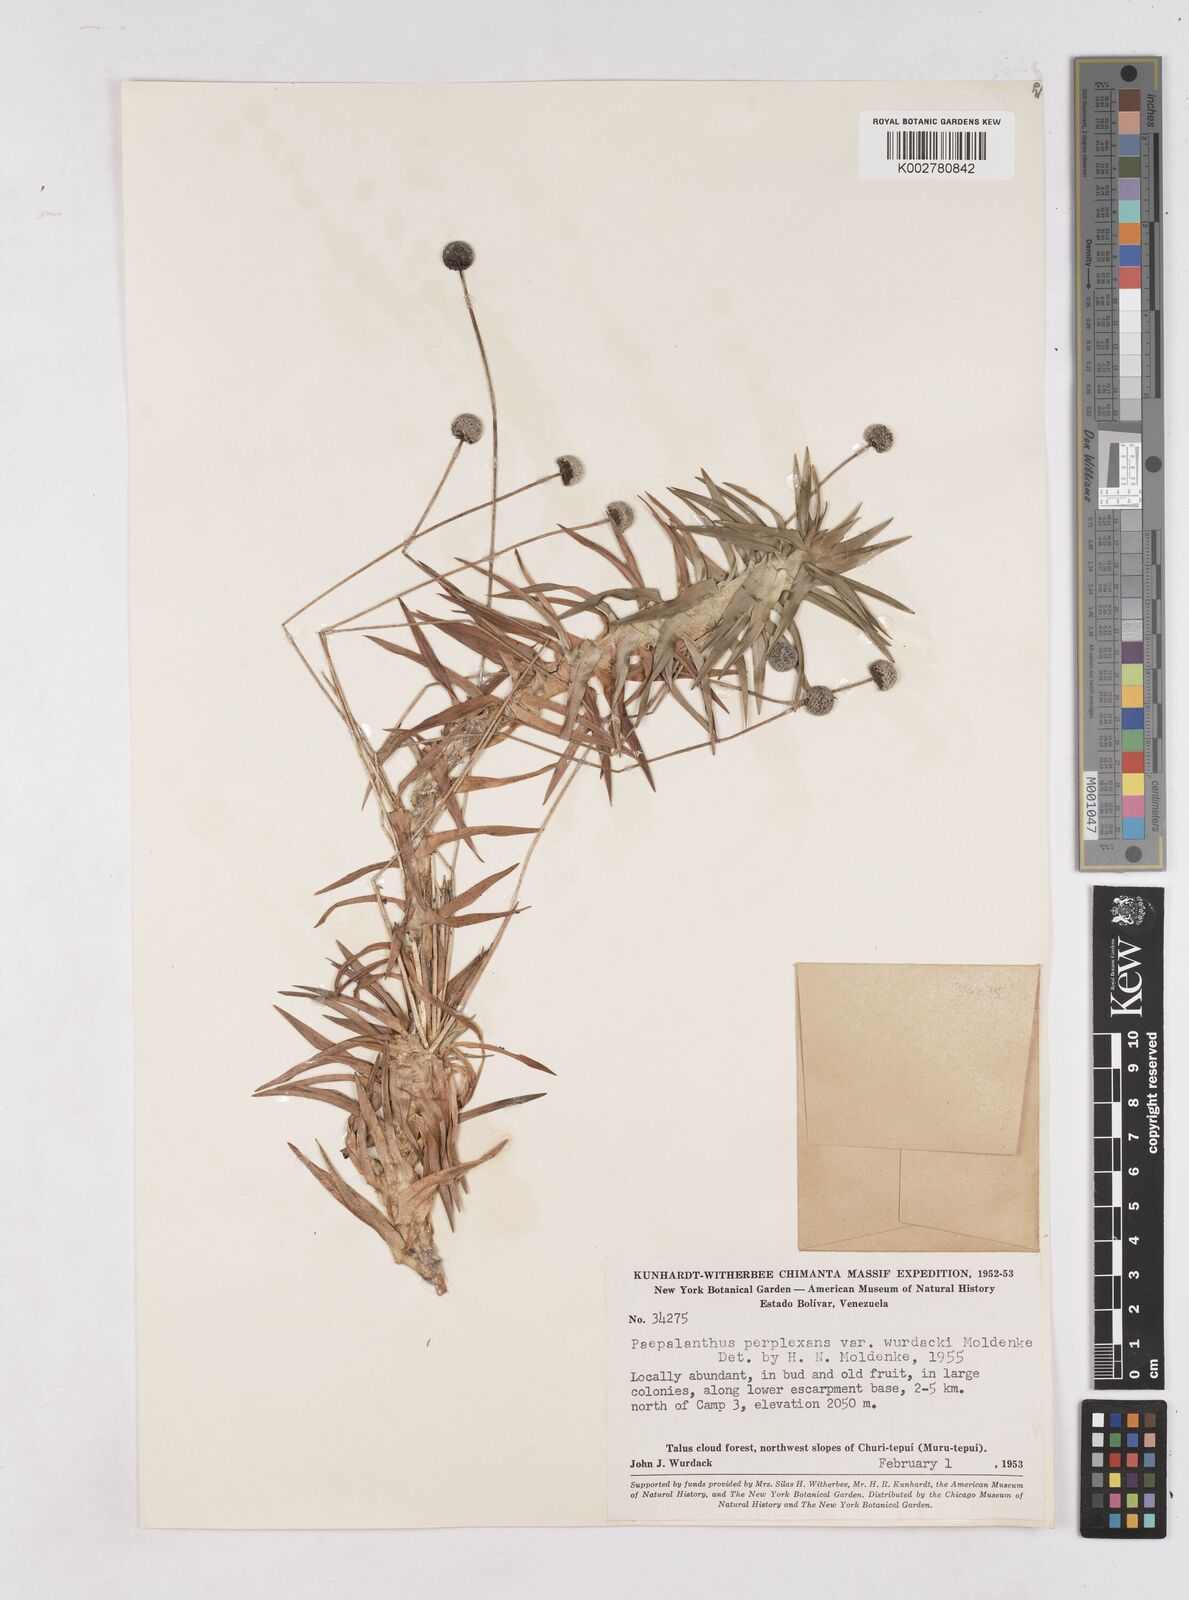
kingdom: Plantae
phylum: Tracheophyta
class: Liliopsida
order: Poales
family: Eriocaulaceae
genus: Paepalanthus
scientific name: Paepalanthus parvicephalus
